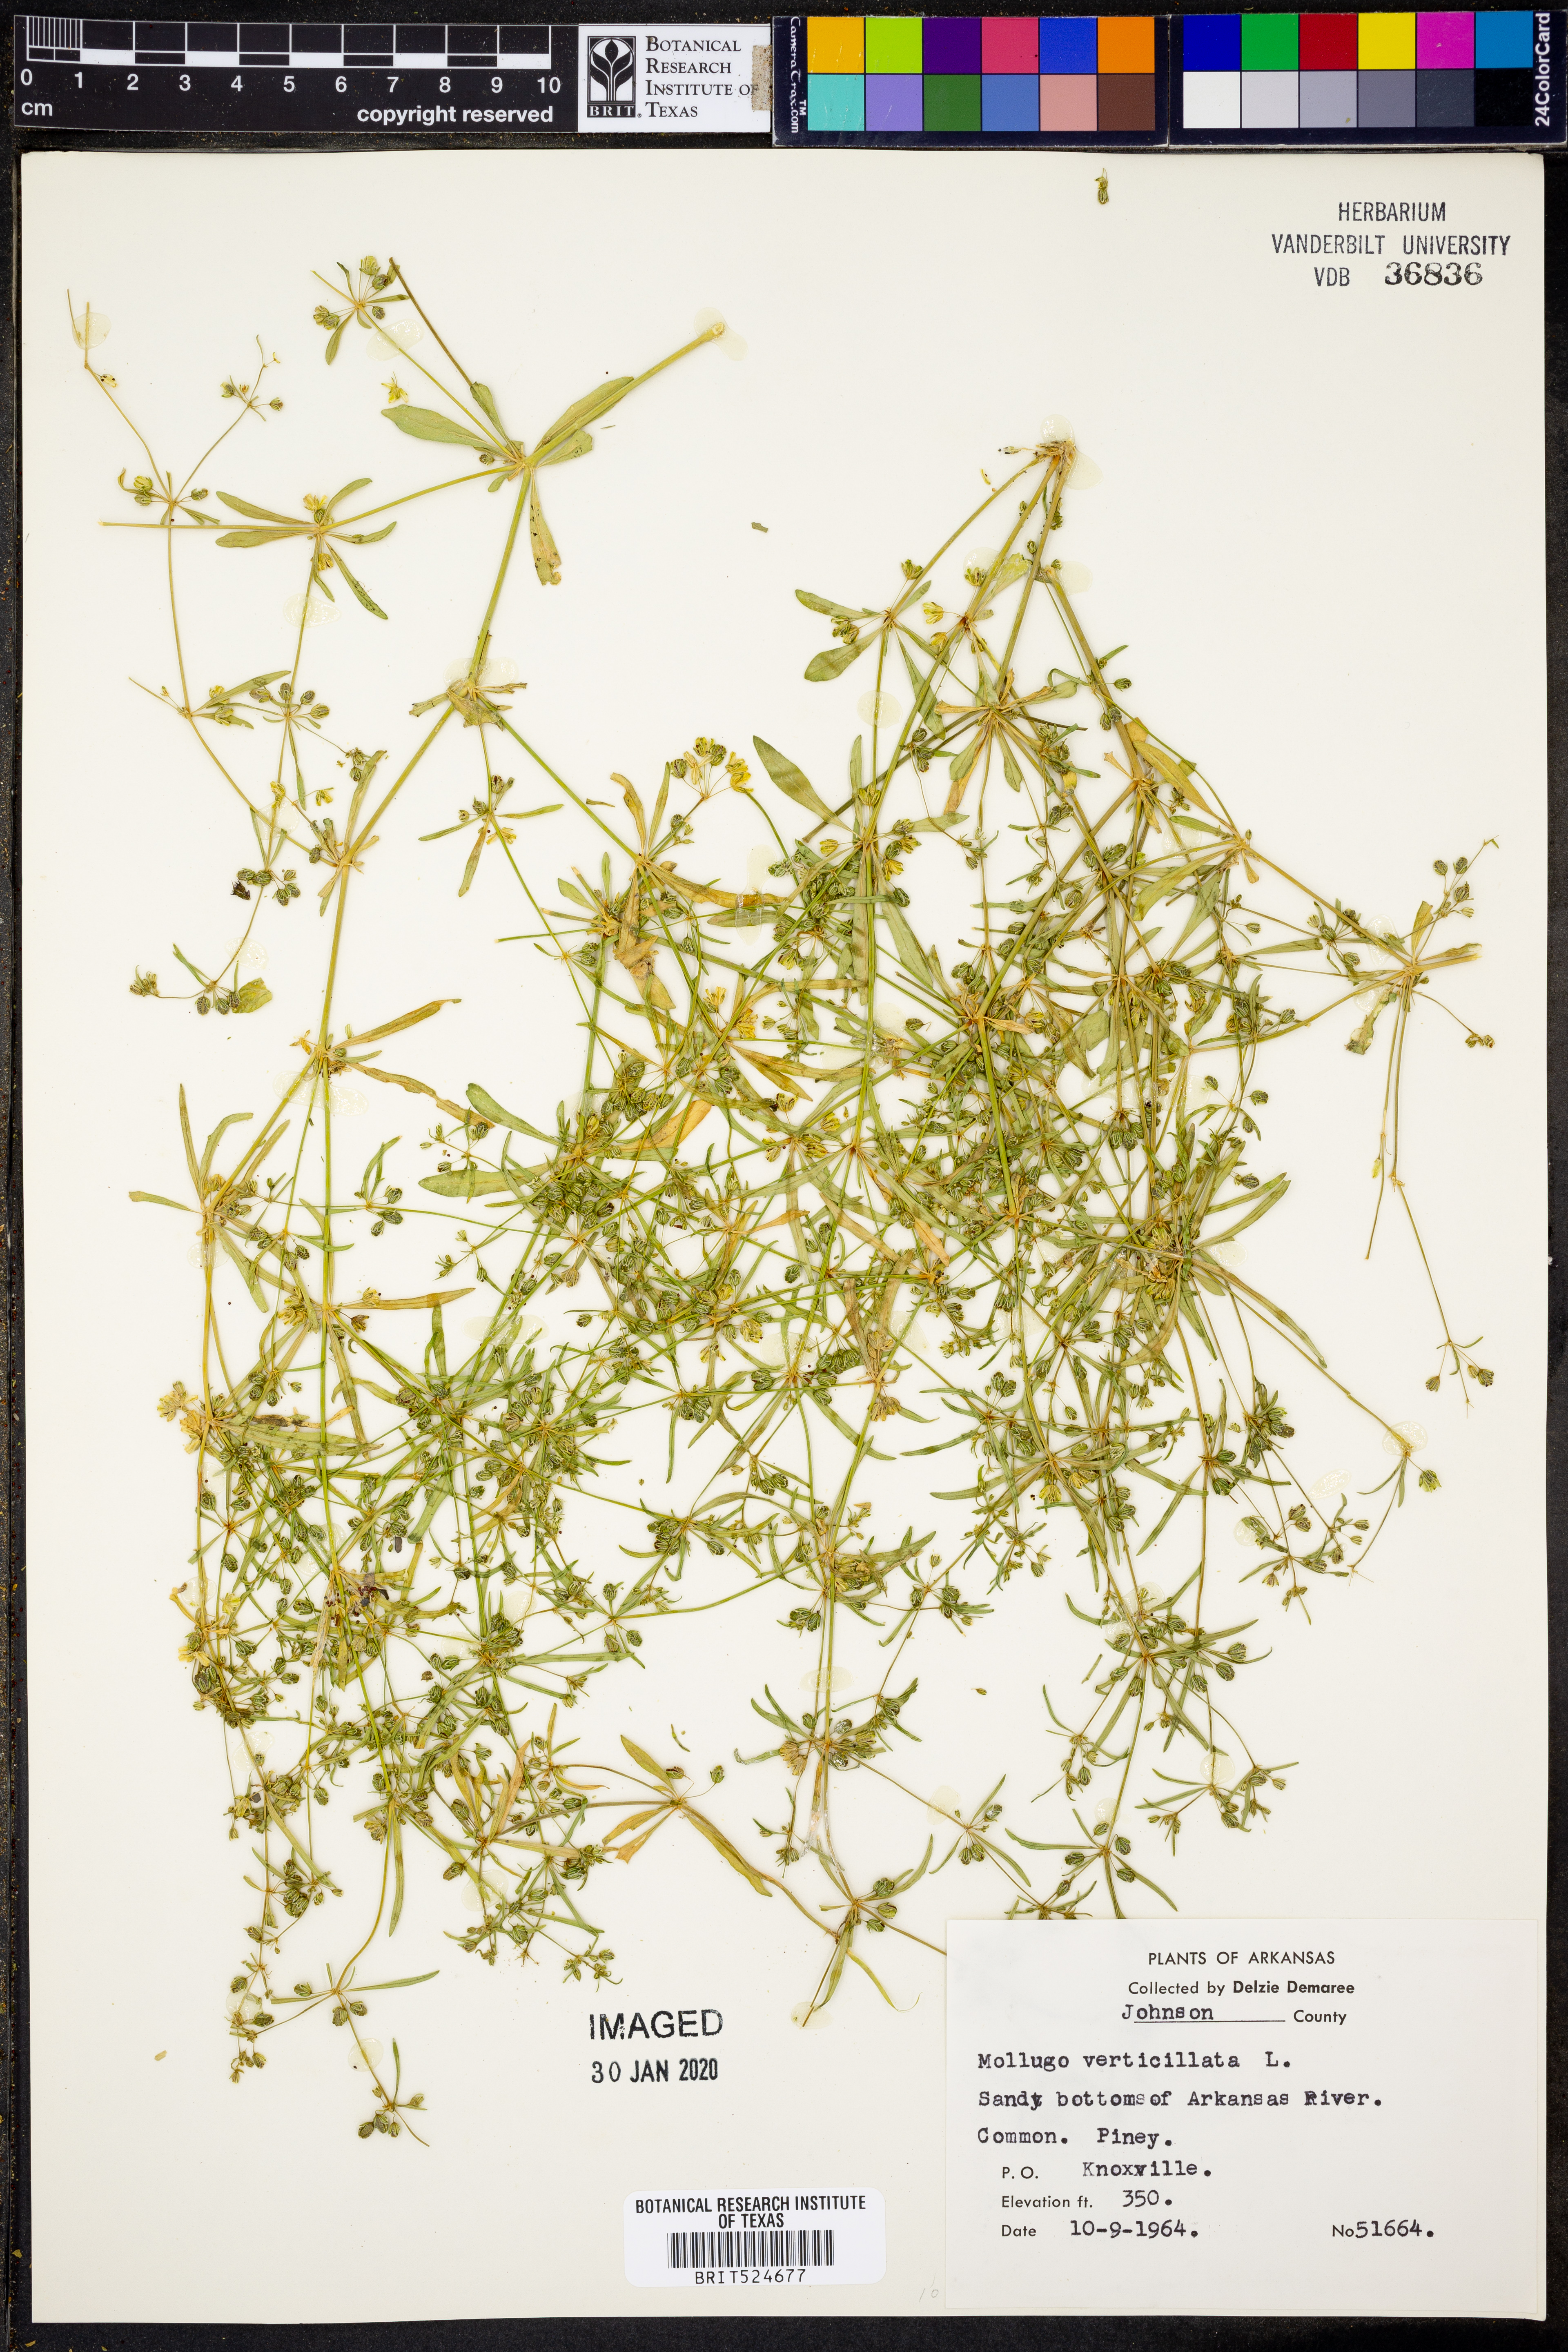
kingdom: Plantae
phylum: Tracheophyta
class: Magnoliopsida
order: Caryophyllales
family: Molluginaceae
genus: Mollugo
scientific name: Mollugo verticillata
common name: Green carpetweed
